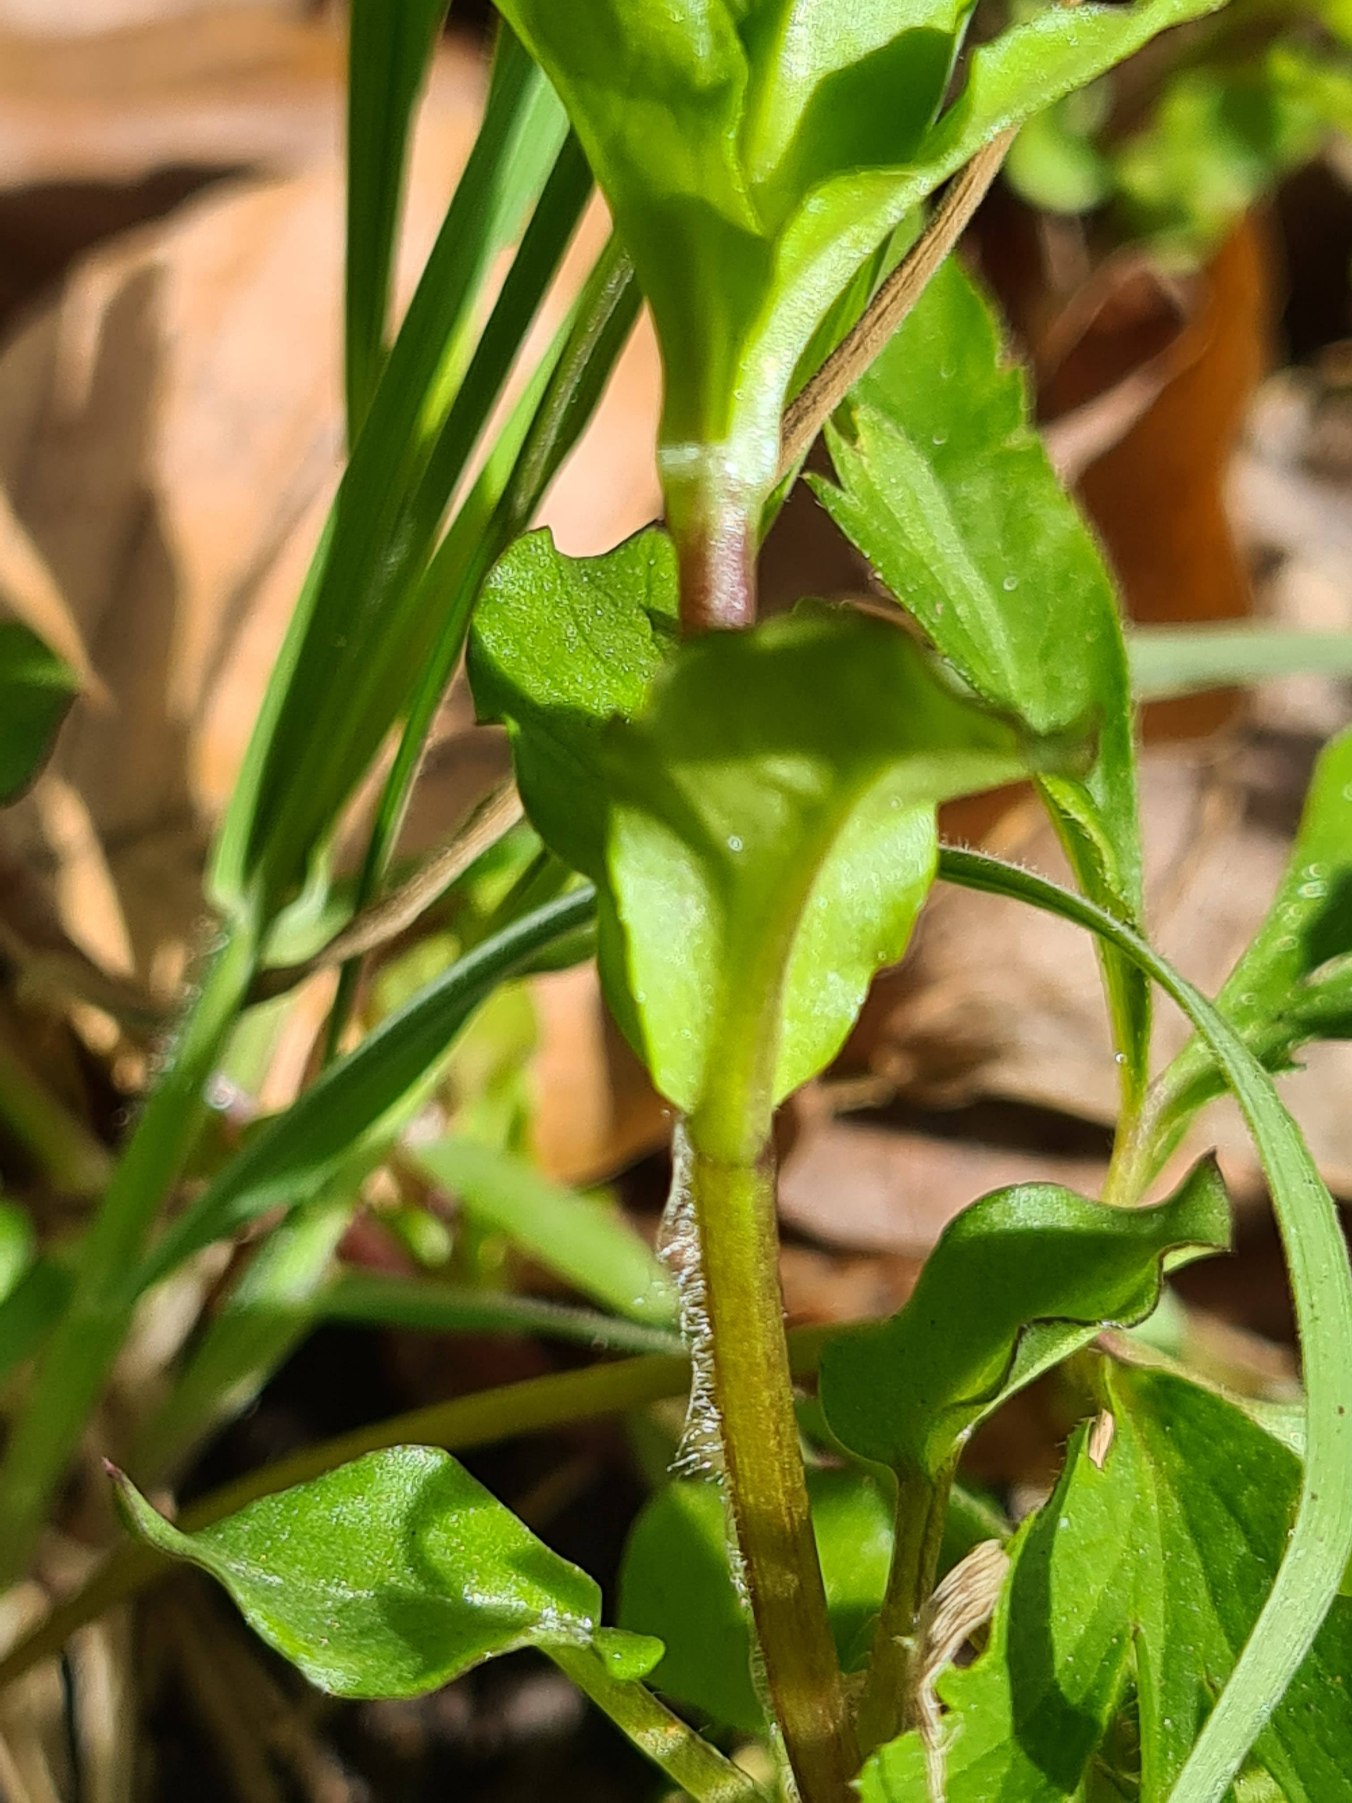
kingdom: Plantae
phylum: Tracheophyta
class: Magnoliopsida
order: Caryophyllales
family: Caryophyllaceae
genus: Stellaria
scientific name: Stellaria media
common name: Almindelig fuglegræs
